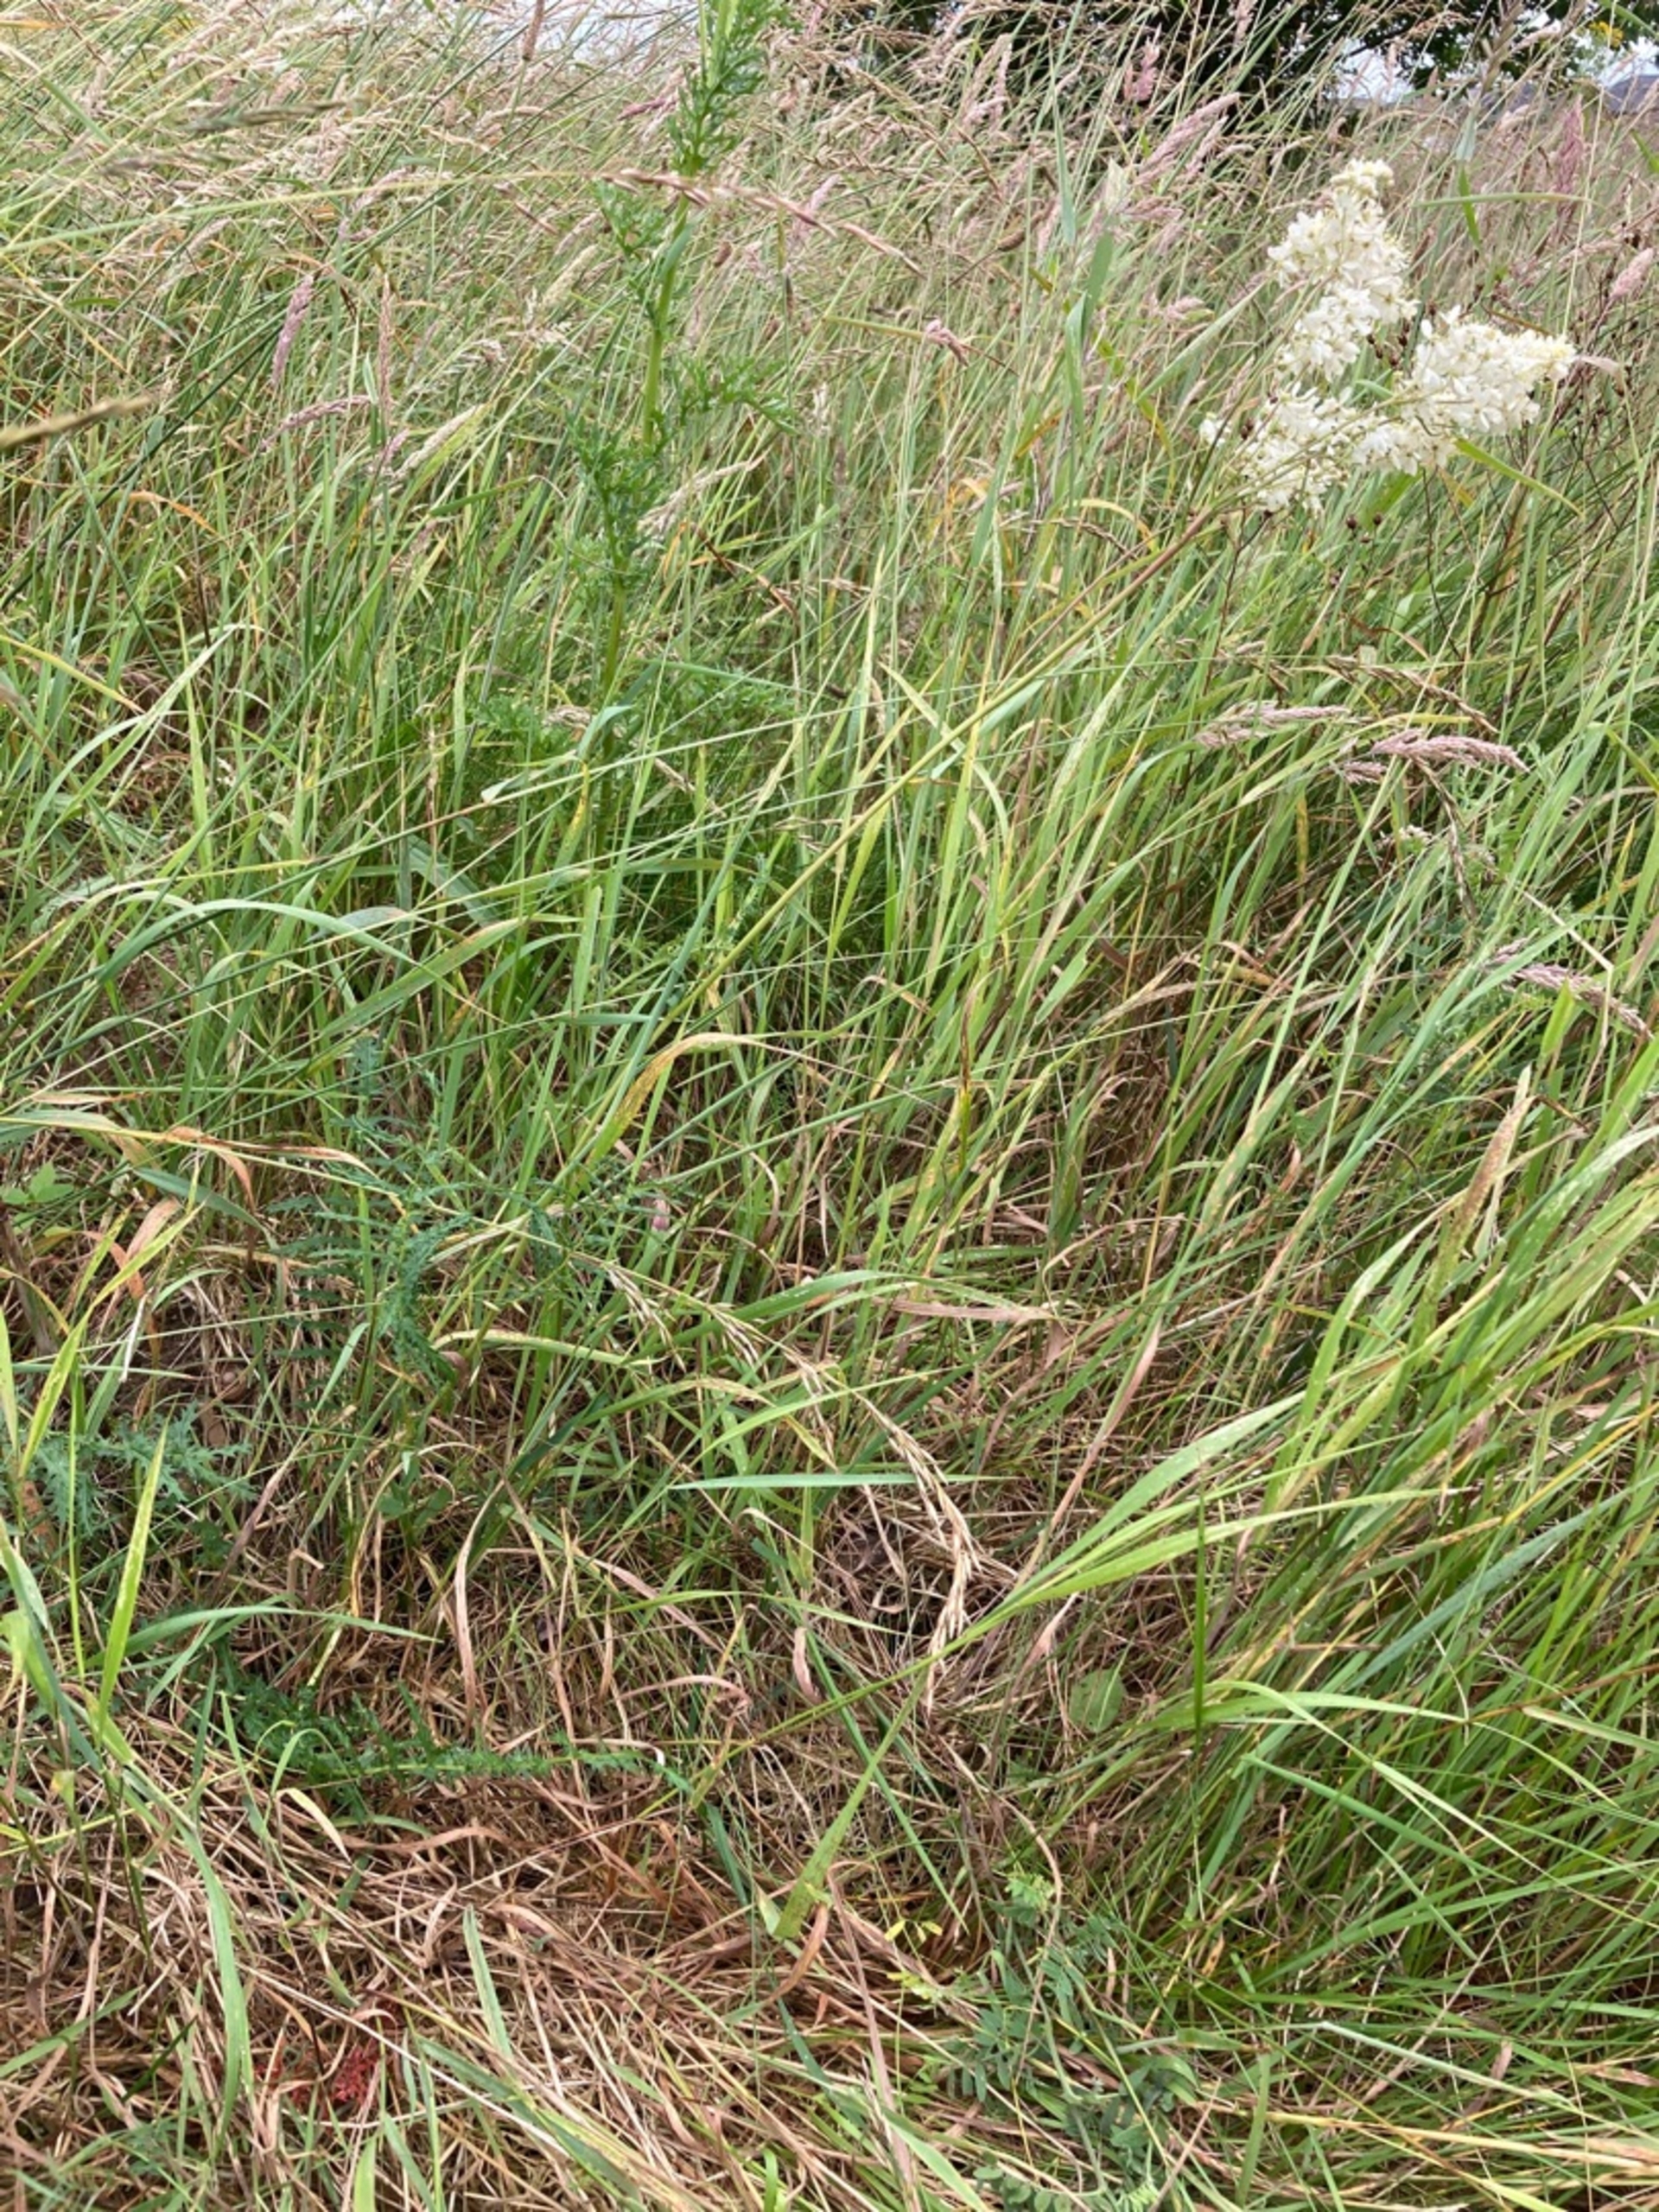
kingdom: Plantae
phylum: Tracheophyta
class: Magnoliopsida
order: Rosales
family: Rosaceae
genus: Filipendula
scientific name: Filipendula vulgaris
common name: Knoldet mjødurt
